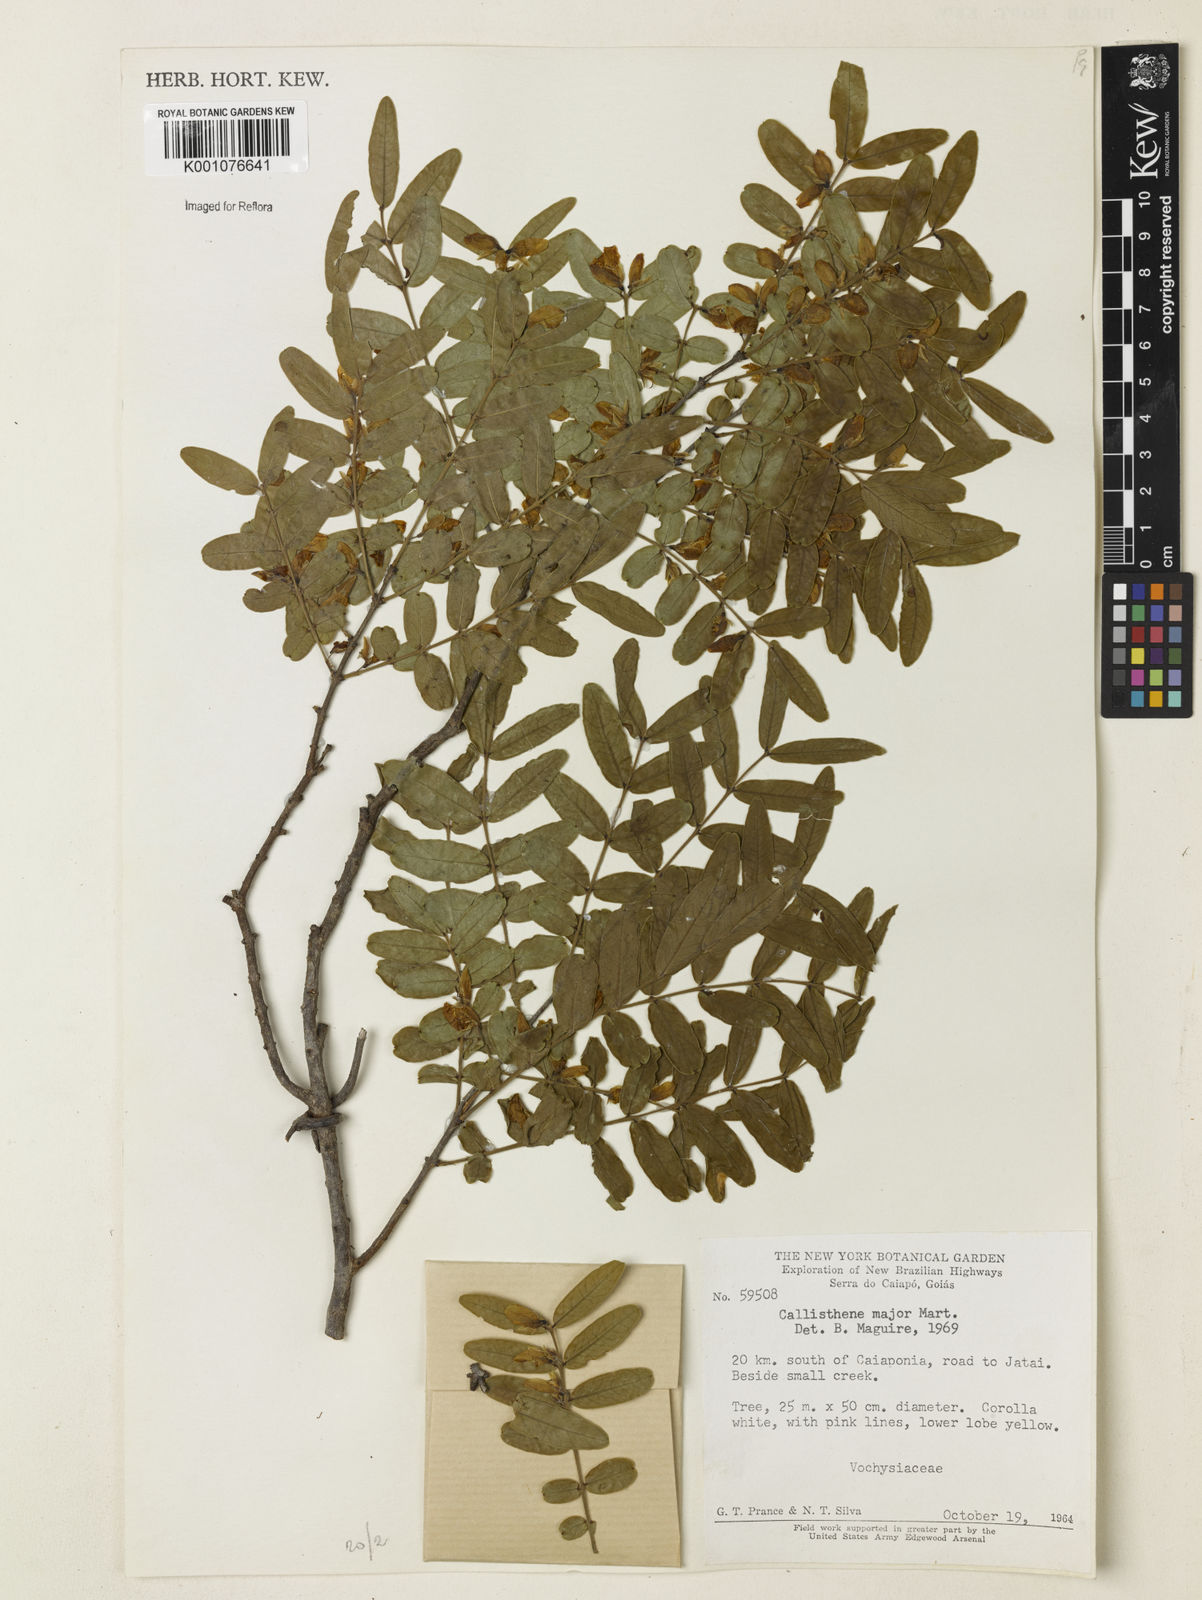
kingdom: Plantae
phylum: Tracheophyta
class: Magnoliopsida
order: Myrtales
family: Vochysiaceae
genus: Callisthene
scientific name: Callisthene major
